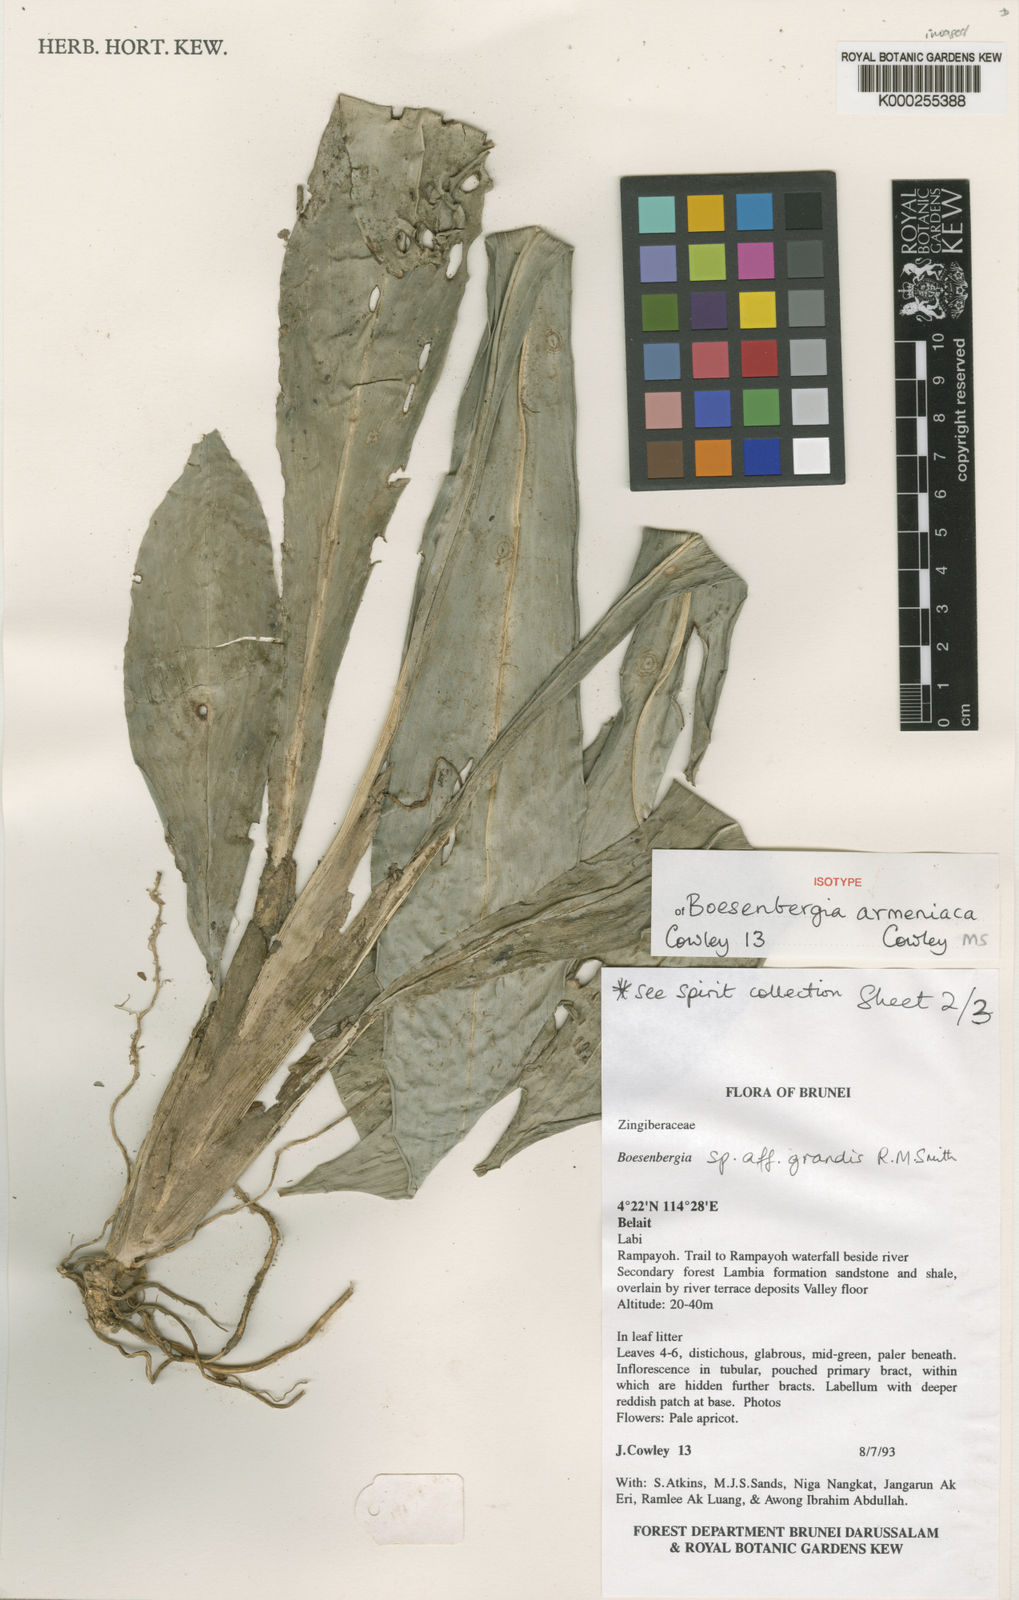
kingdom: Plantae
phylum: Tracheophyta
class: Liliopsida
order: Zingiberales
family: Zingiberaceae
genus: Boesenbergia
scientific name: Boesenbergia armeniaca
